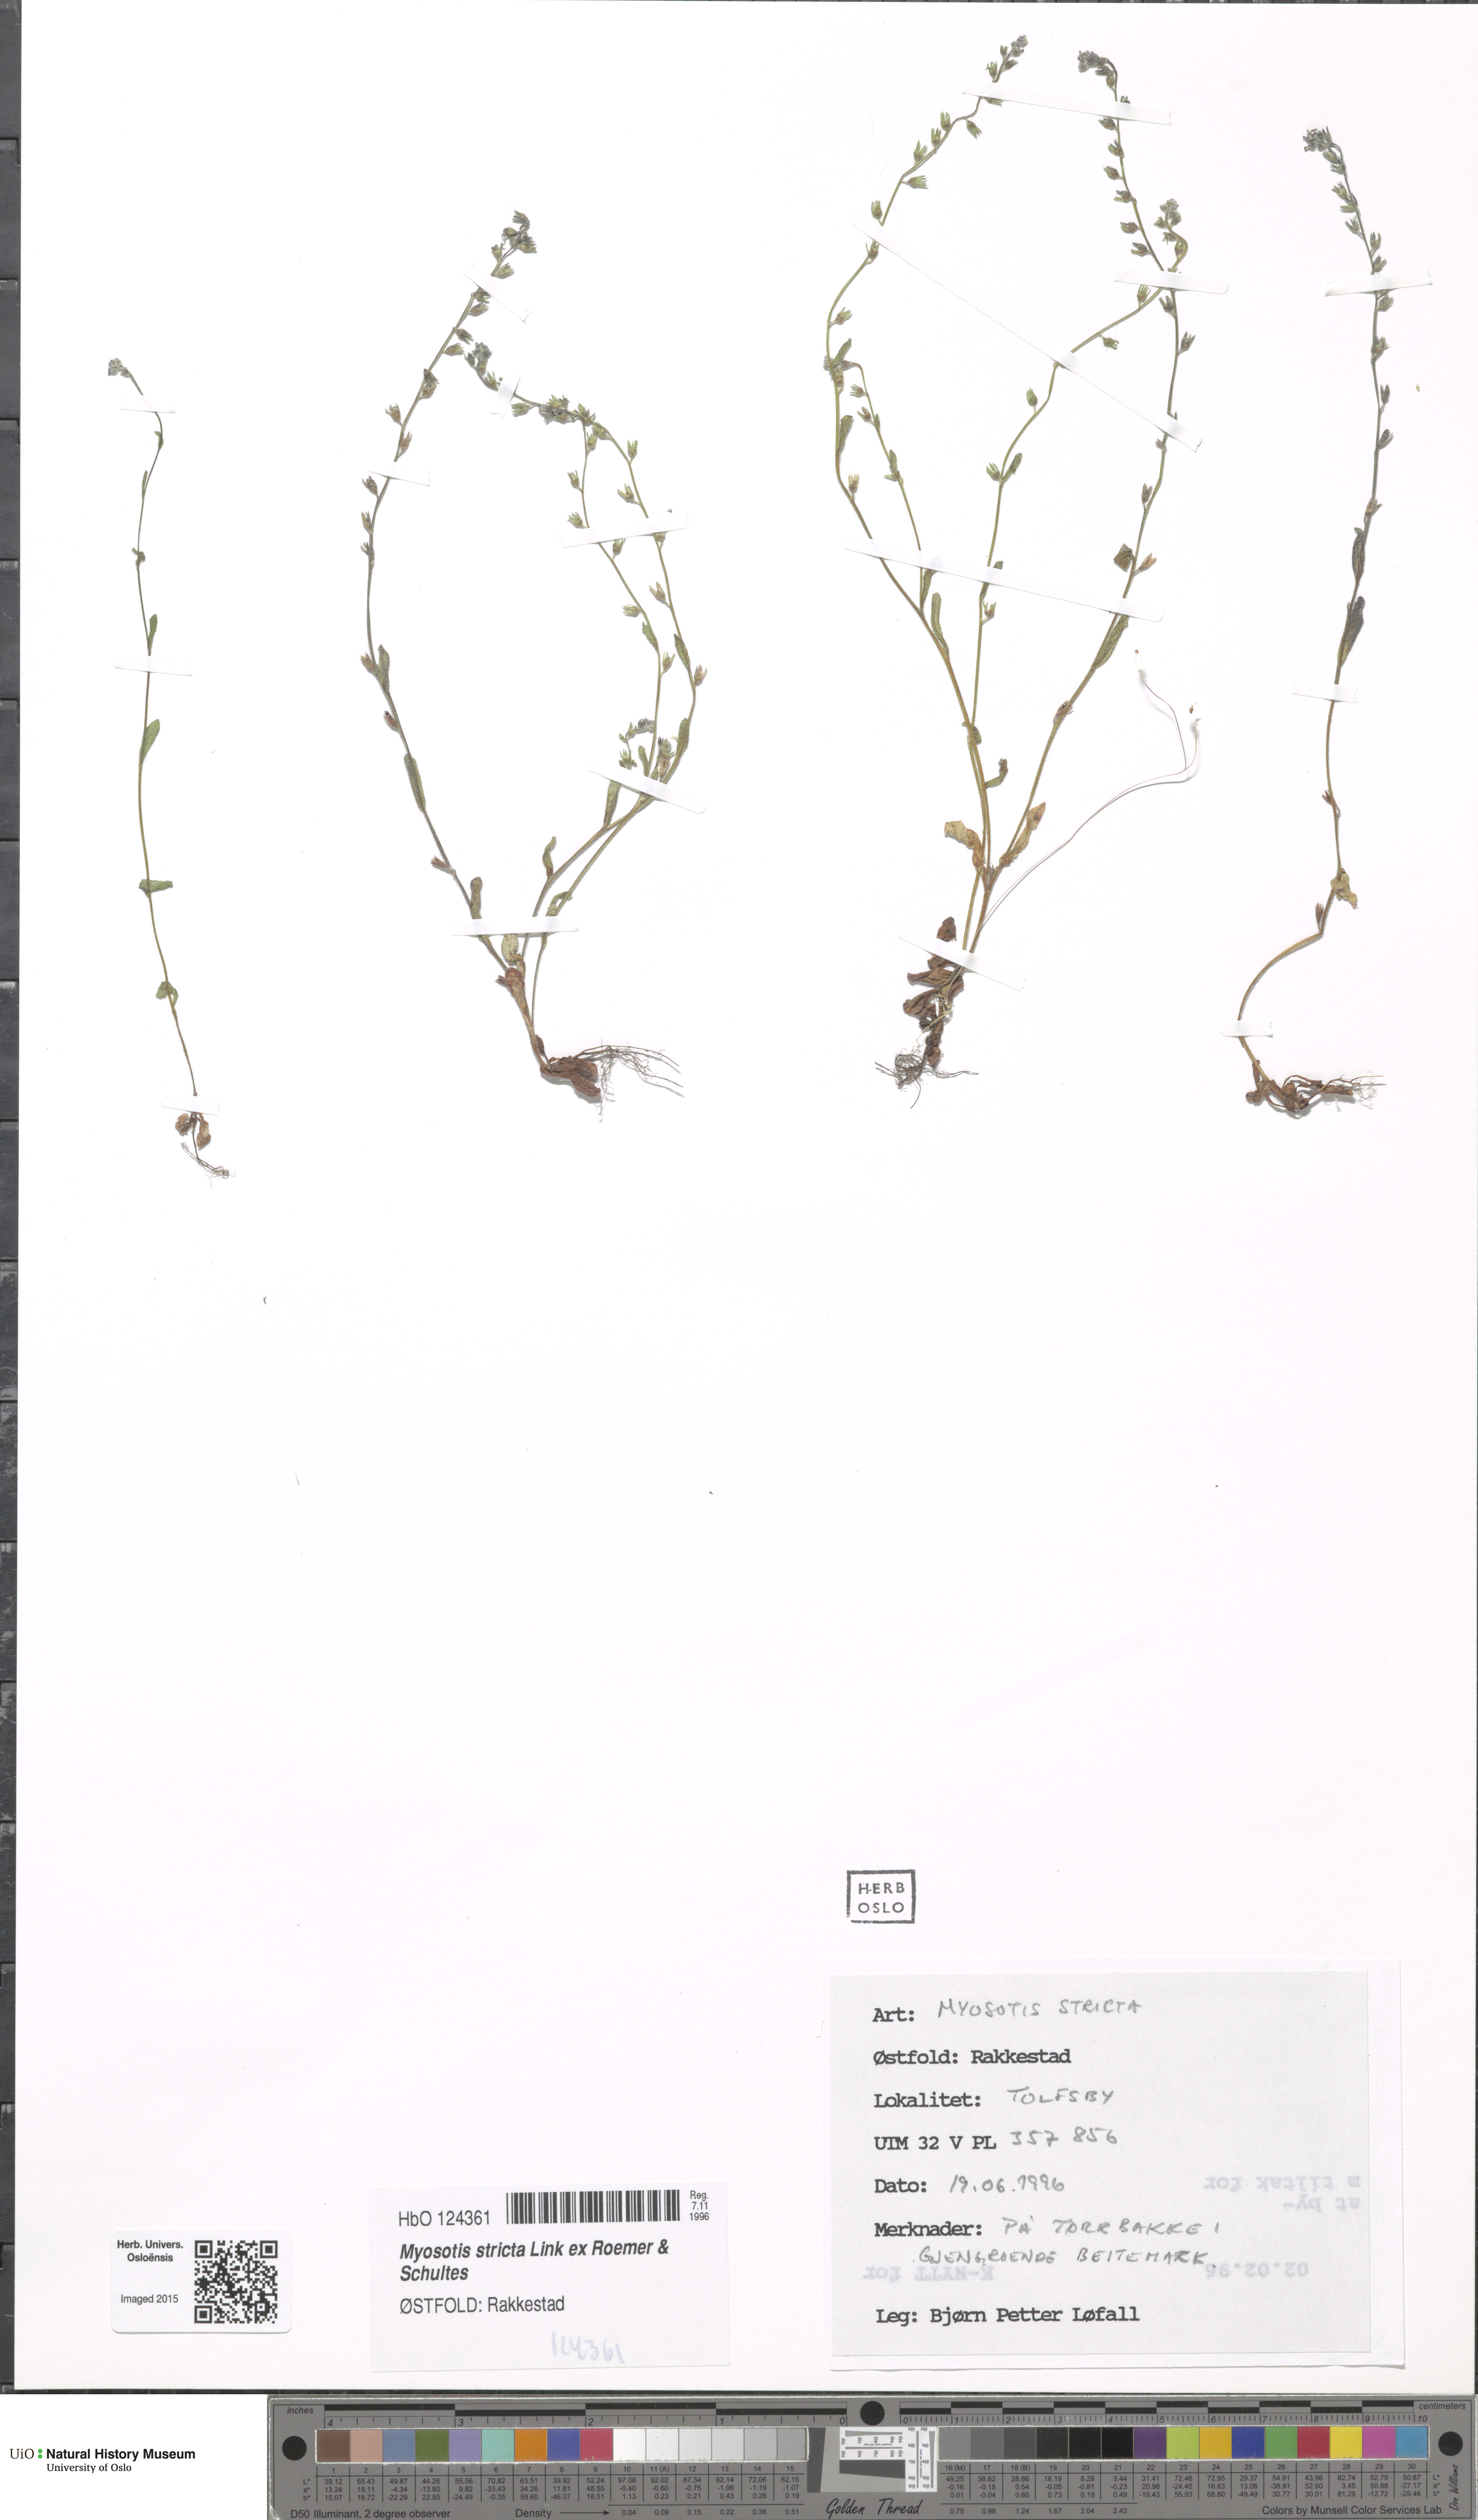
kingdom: Plantae
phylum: Tracheophyta
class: Magnoliopsida
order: Boraginales
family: Boraginaceae
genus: Myosotis
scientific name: Myosotis stricta
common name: Strict forget-me-not
